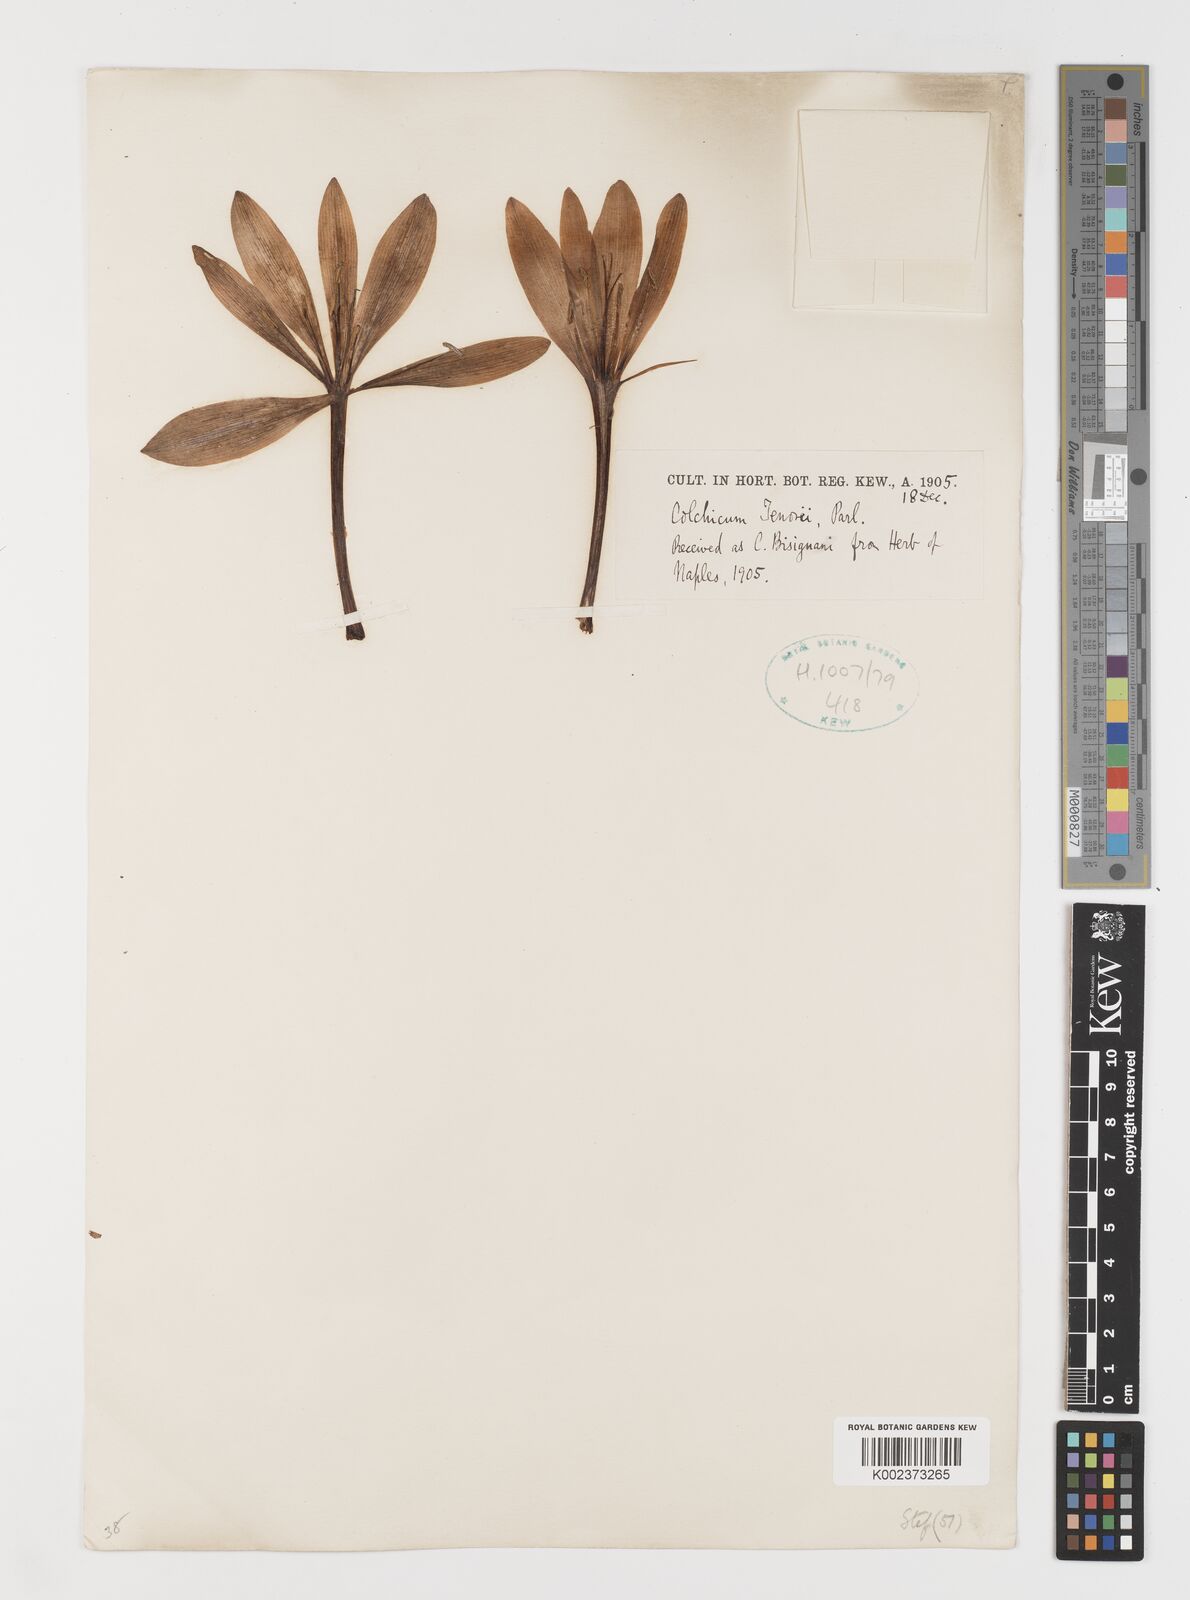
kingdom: Plantae
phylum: Tracheophyta
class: Liliopsida
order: Liliales
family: Colchicaceae
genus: Colchicum
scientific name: Colchicum cilicicum
